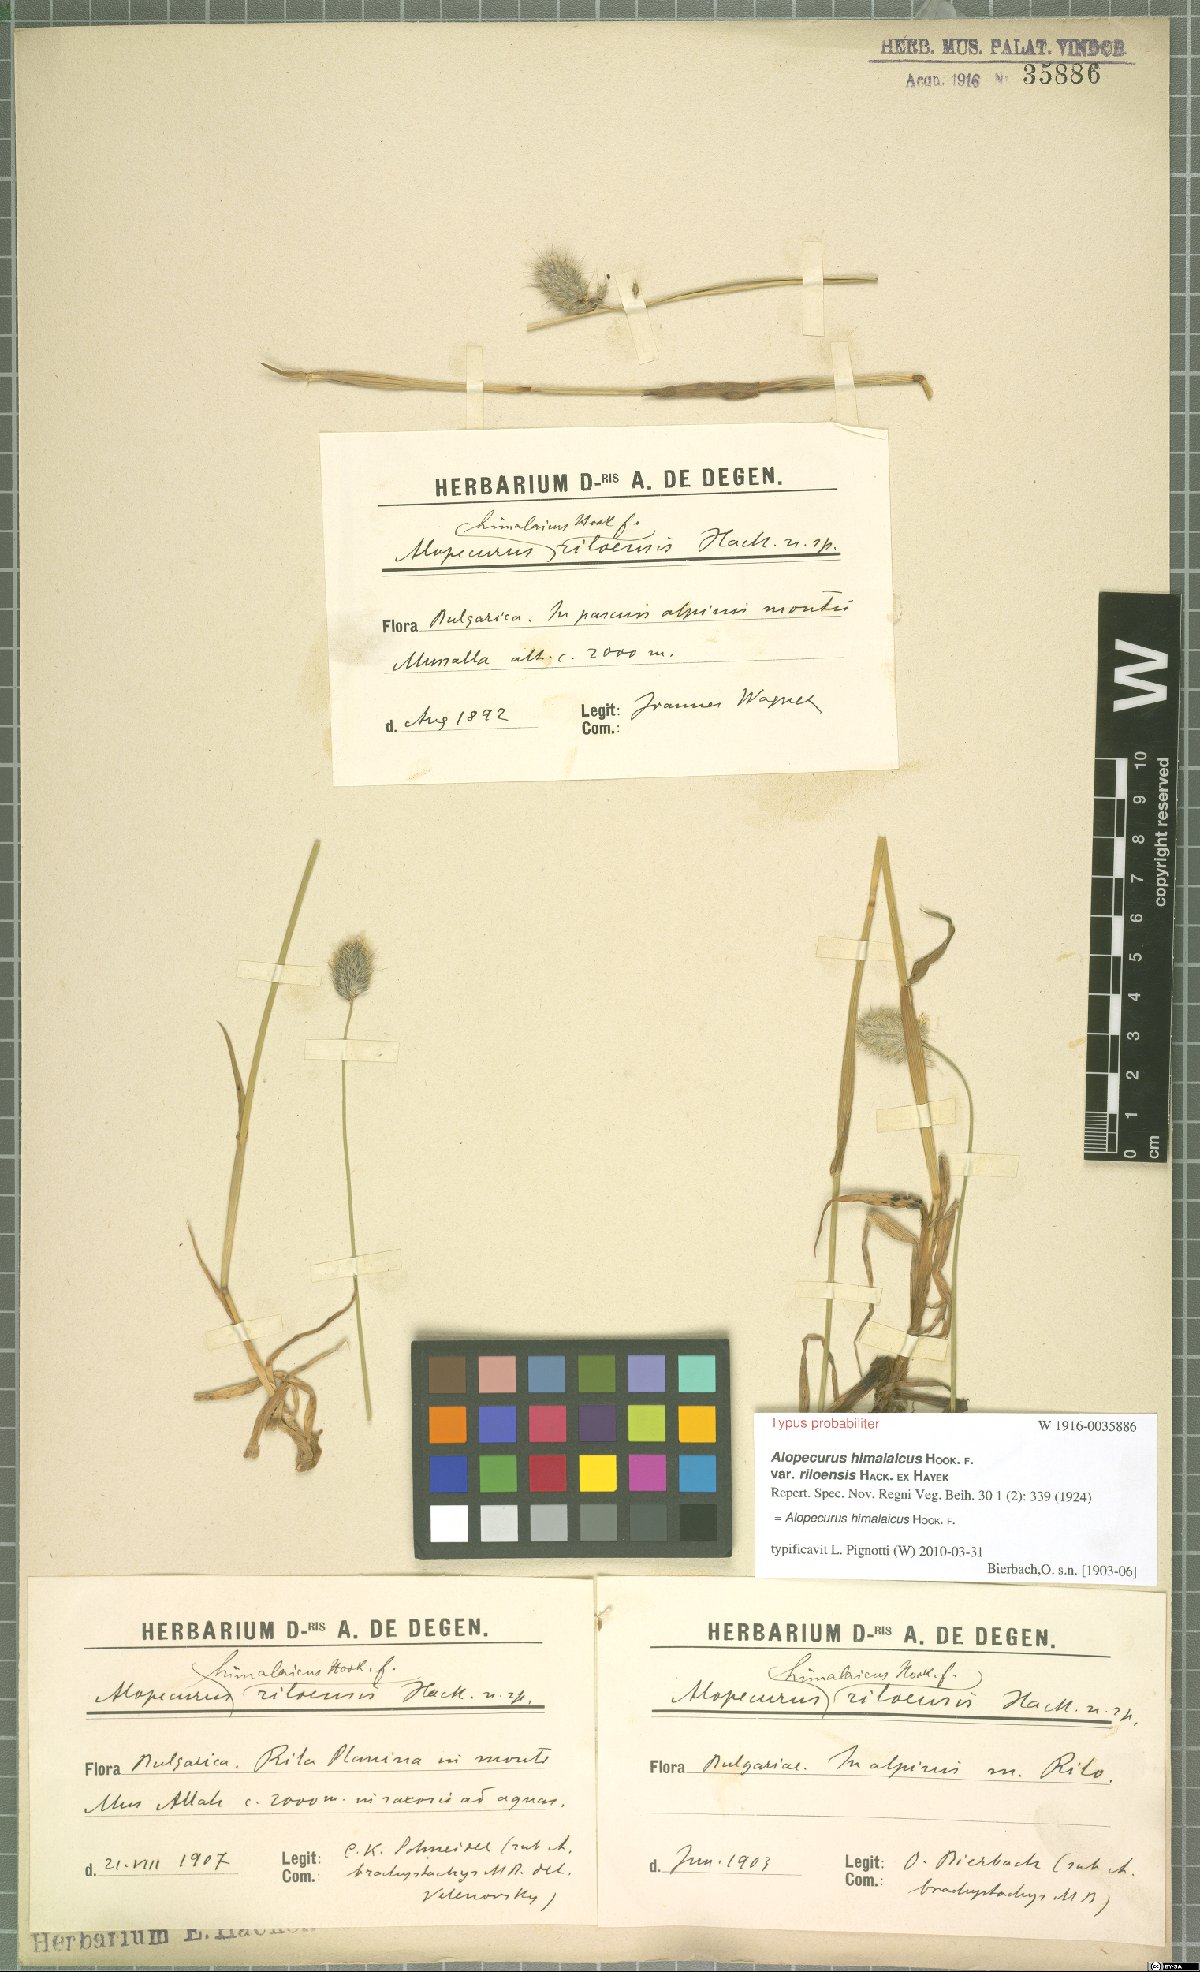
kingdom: Plantae
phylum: Tracheophyta
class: Liliopsida
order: Poales
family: Poaceae
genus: Alopecurus
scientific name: Alopecurus himalaicus
